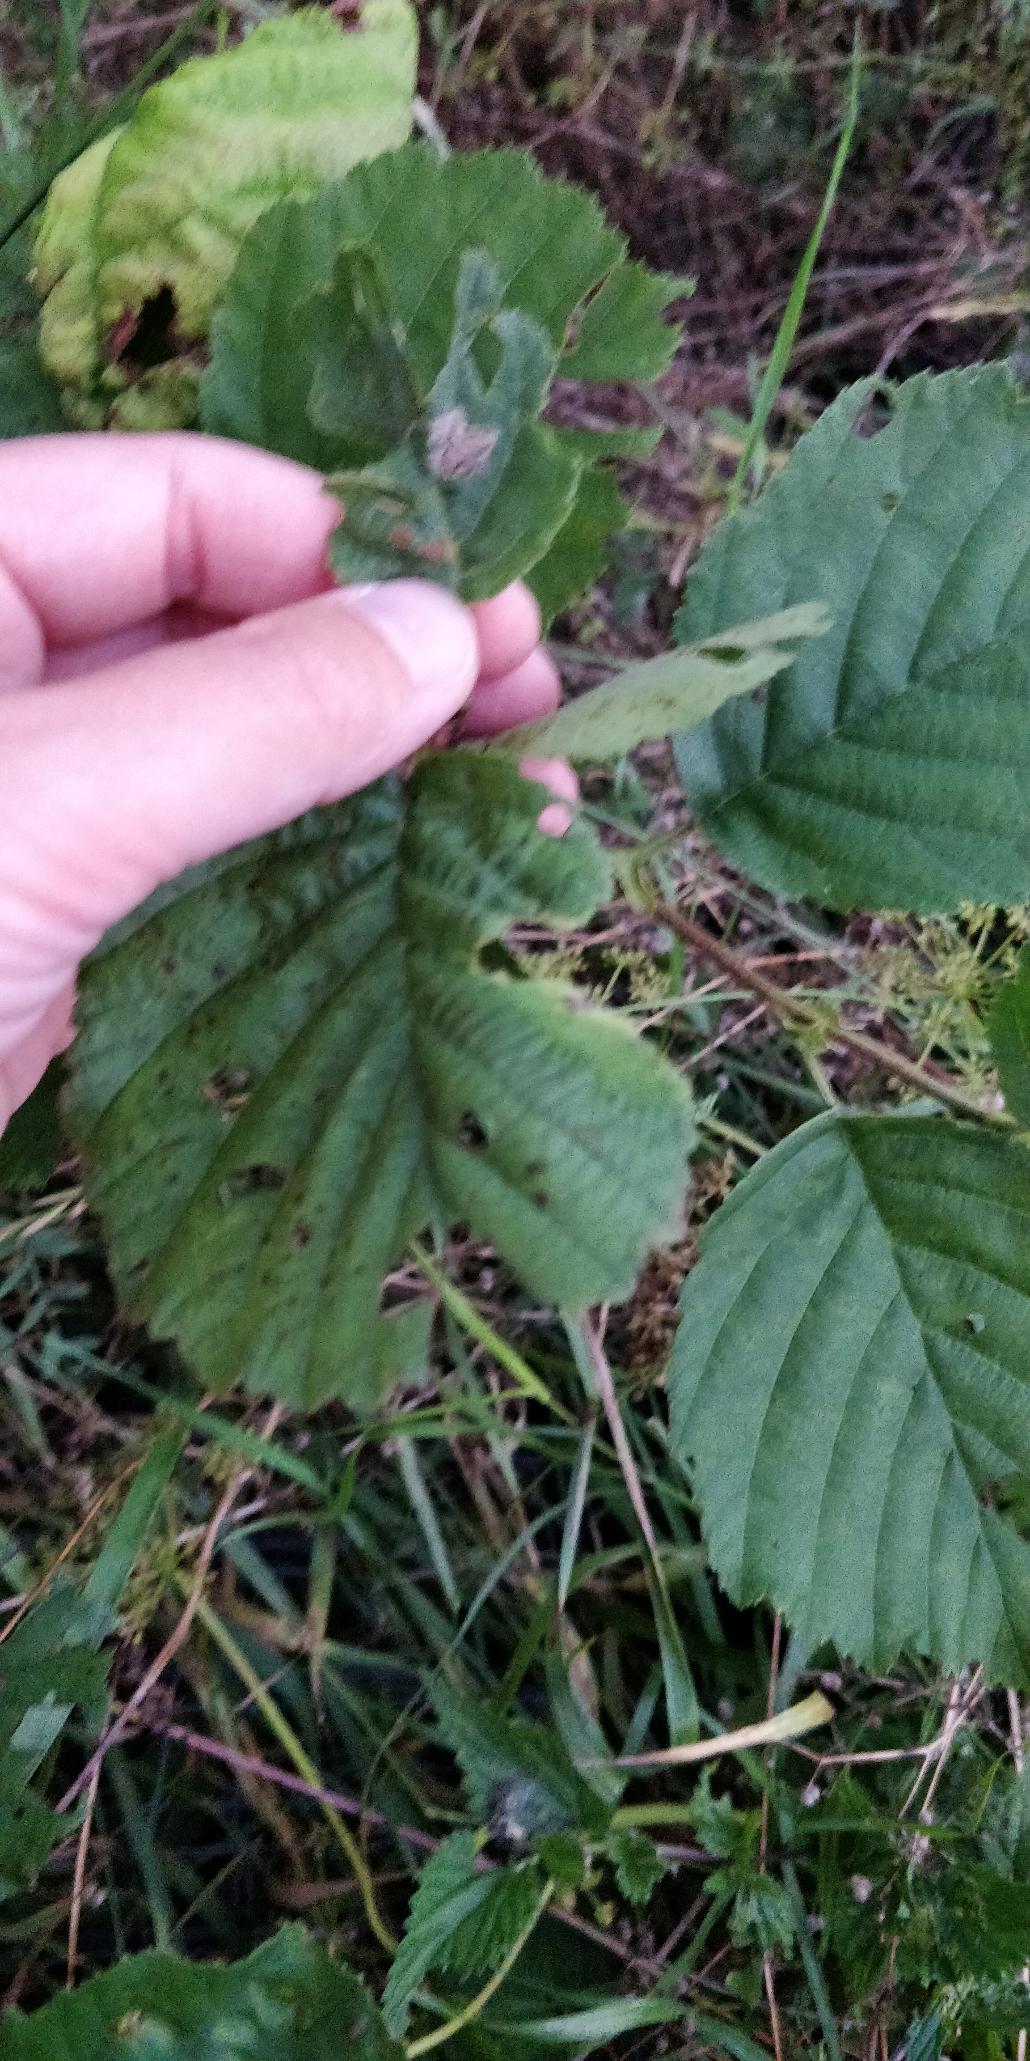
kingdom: Plantae
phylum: Tracheophyta
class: Magnoliopsida
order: Fagales
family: Betulaceae
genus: Alnus
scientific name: Alnus glutinosa
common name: Rød-el
